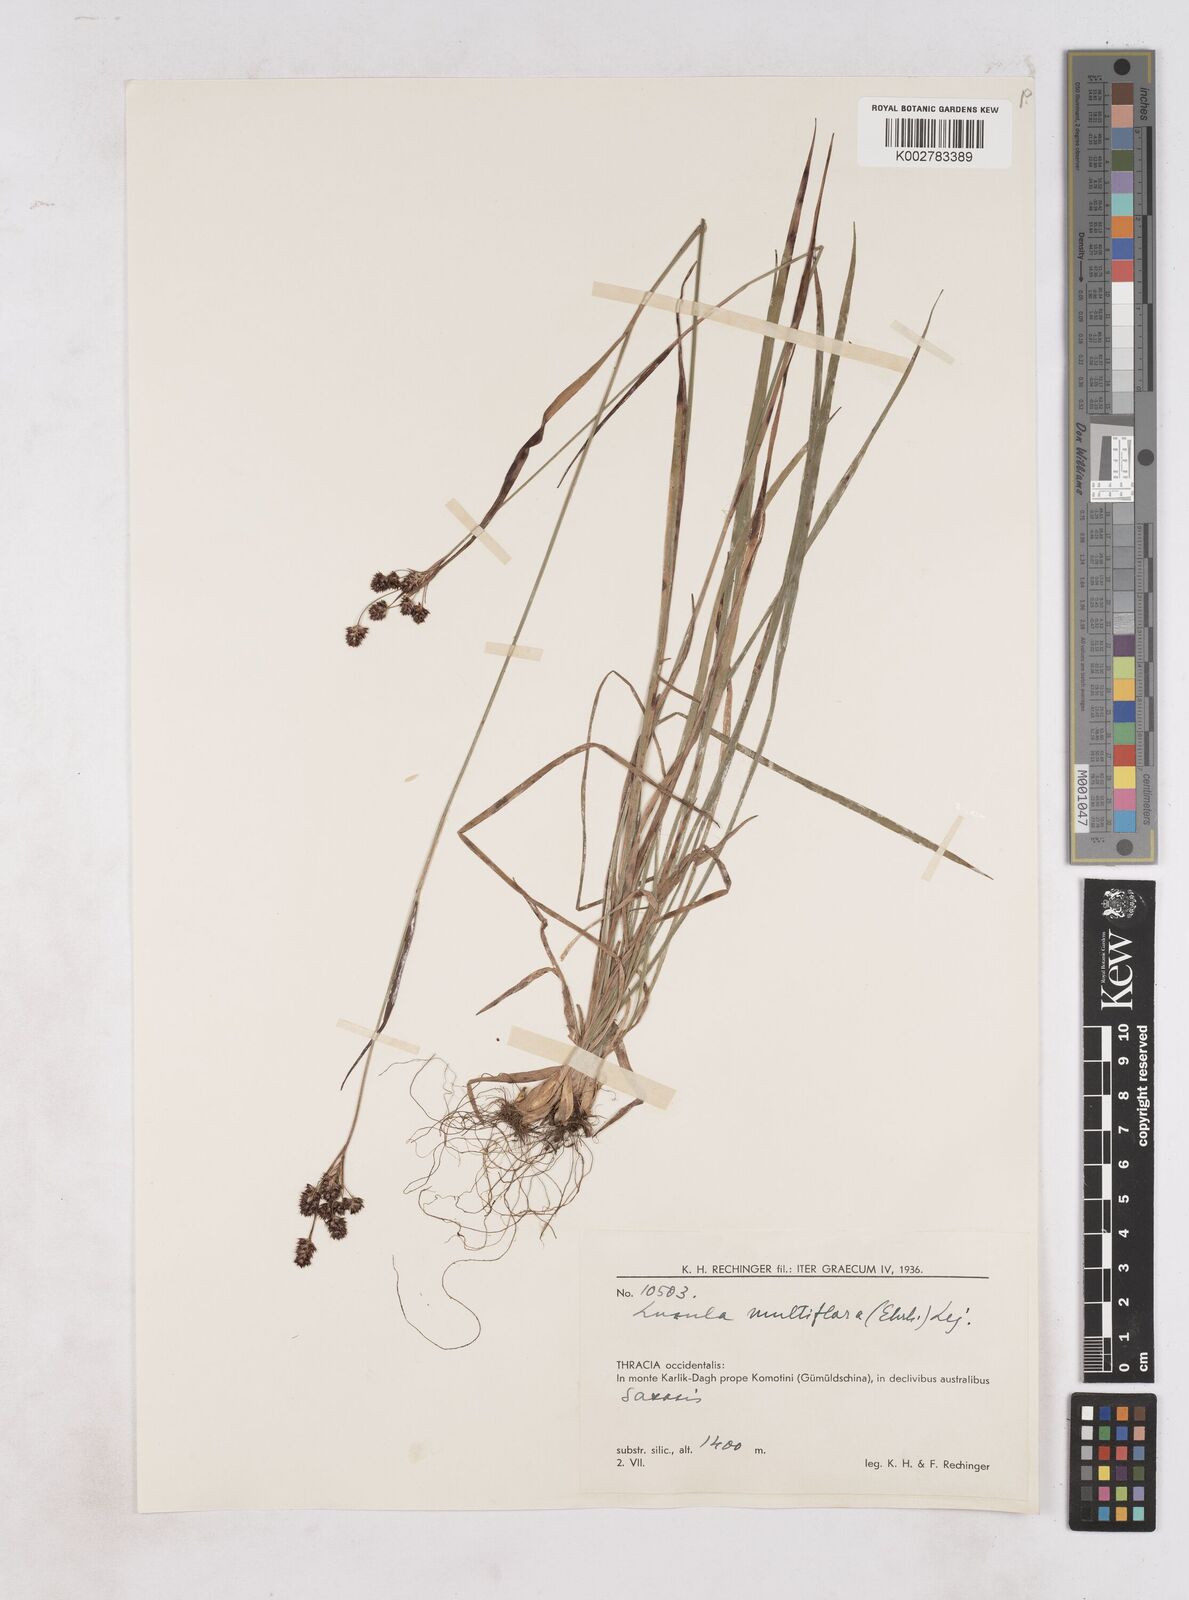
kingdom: Plantae
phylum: Tracheophyta
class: Liliopsida
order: Poales
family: Juncaceae
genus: Luzula
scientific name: Luzula multiflora
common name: Heath wood-rush
